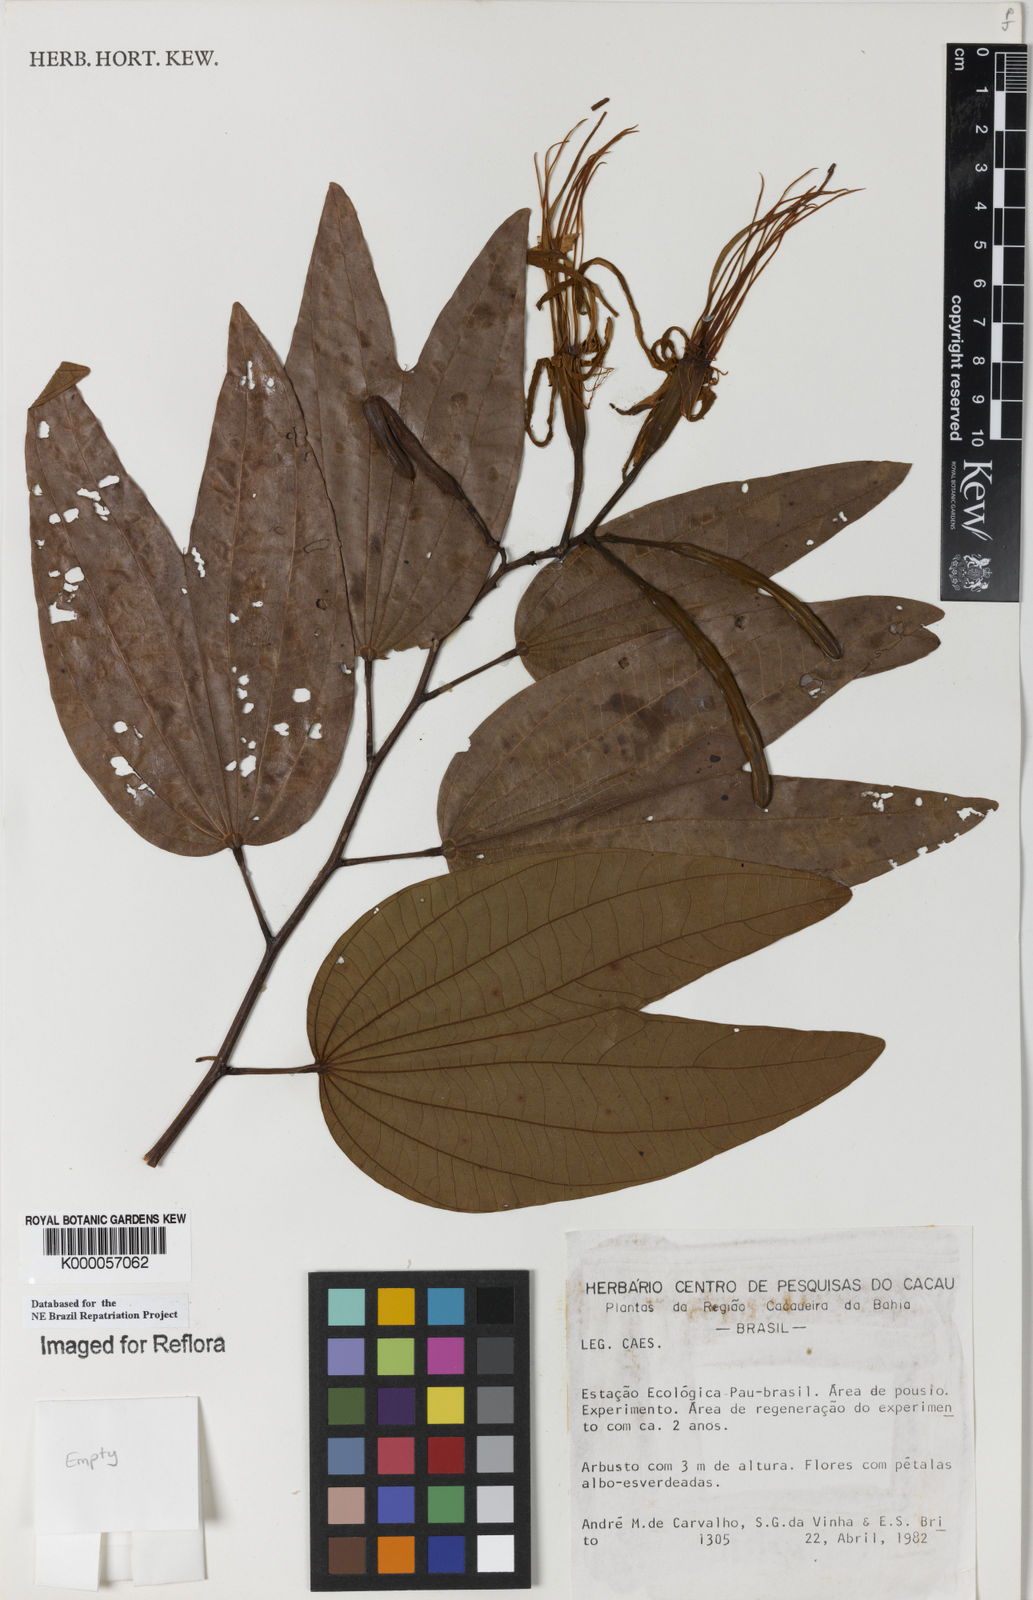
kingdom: Plantae
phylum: Tracheophyta
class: Magnoliopsida
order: Fabales
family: Fabaceae
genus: Bauhinia
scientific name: Bauhinia
